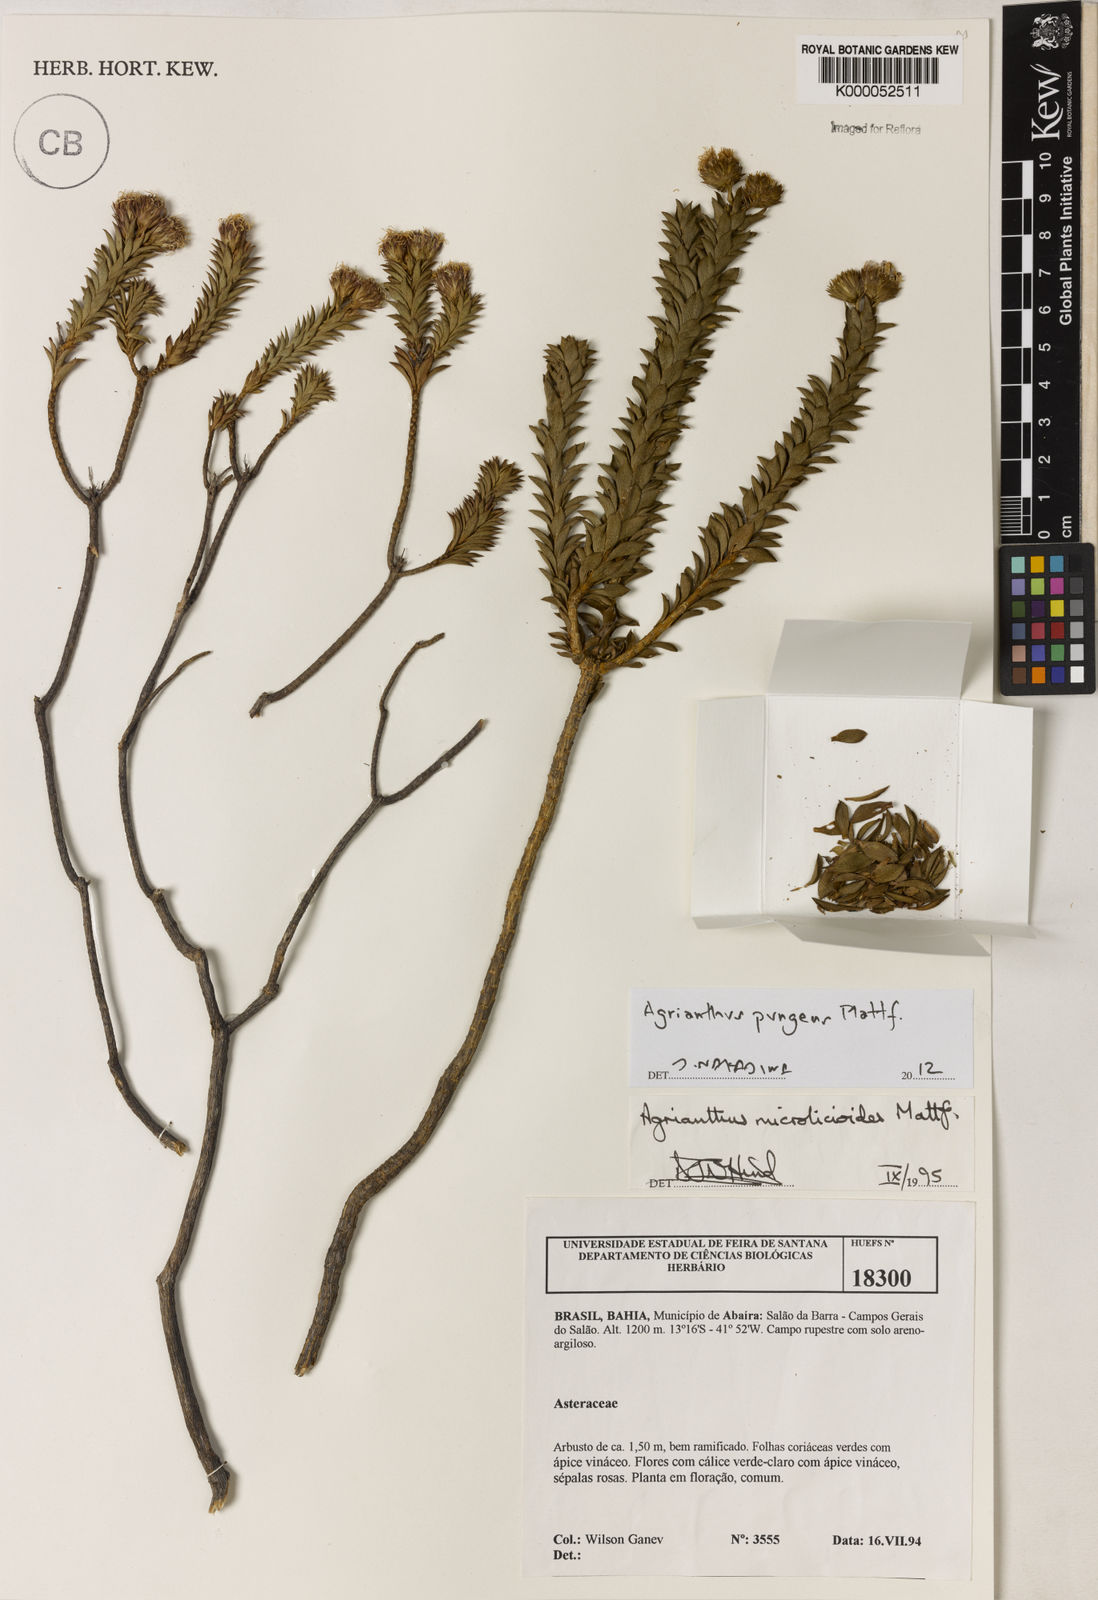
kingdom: Plantae
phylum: Tracheophyta
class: Magnoliopsida
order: Asterales
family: Asteraceae
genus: Agrianthus
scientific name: Agrianthus microlicioides
